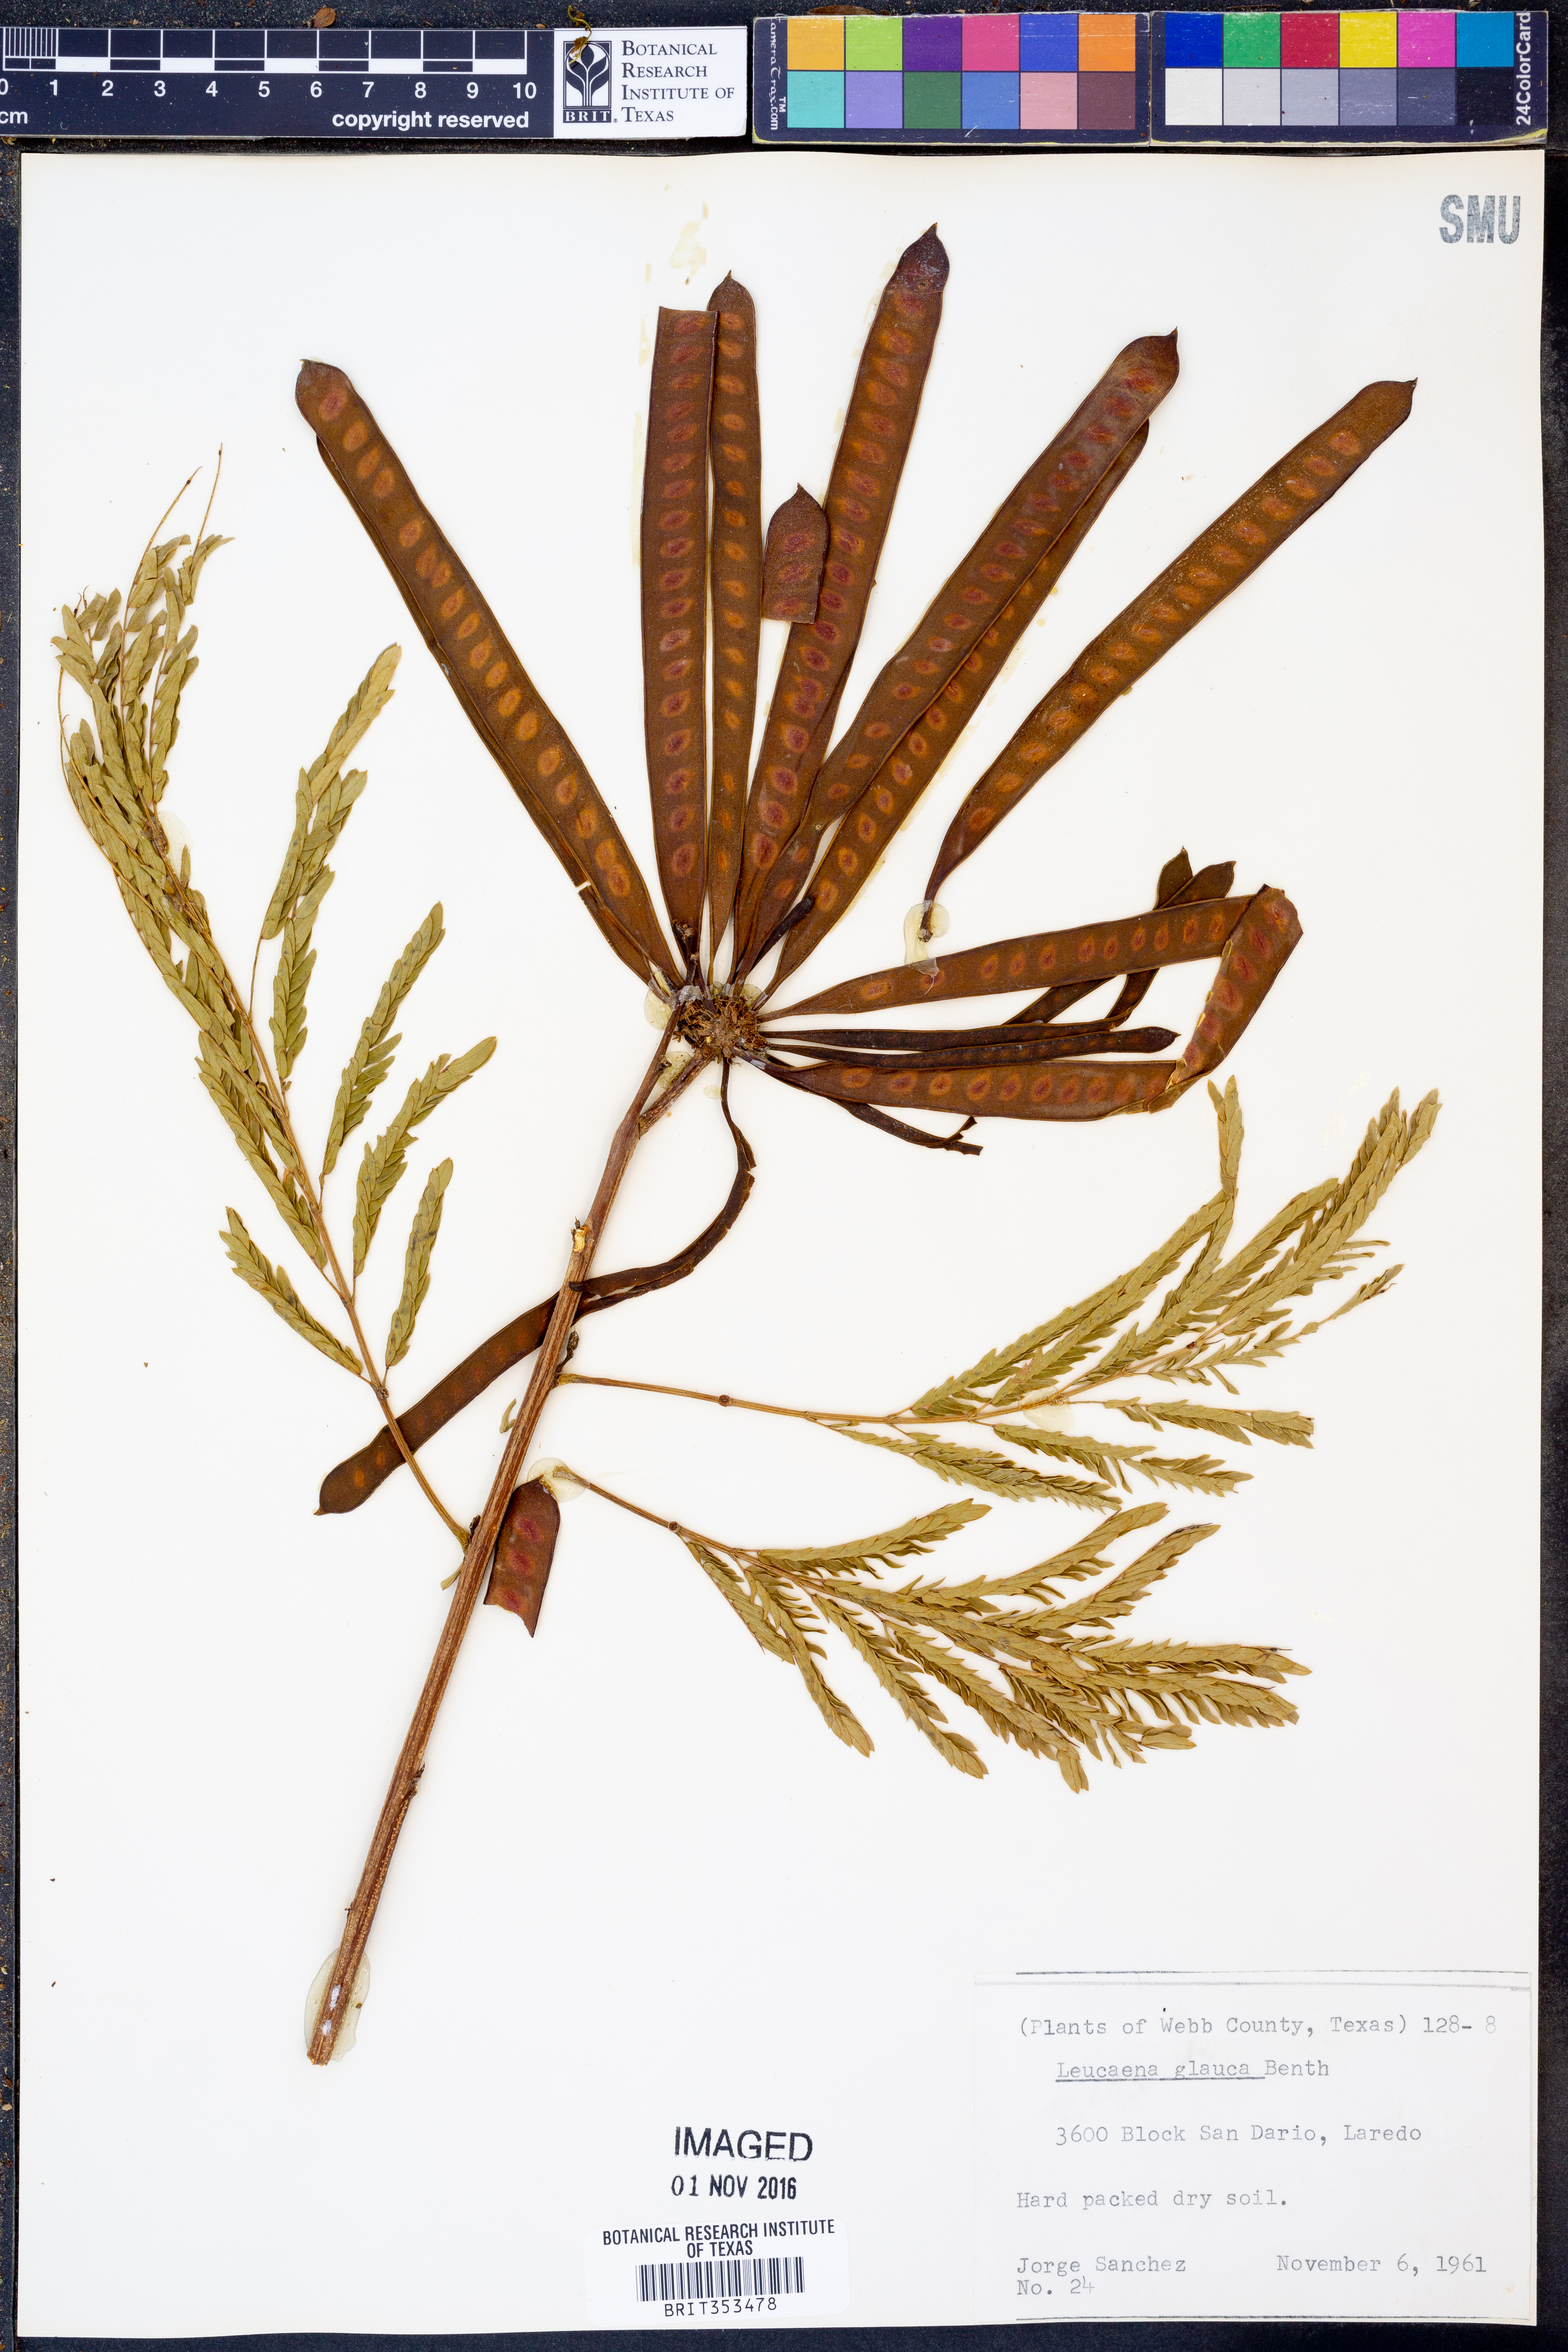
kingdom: Plantae
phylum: Tracheophyta
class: Magnoliopsida
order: Fabales
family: Fabaceae
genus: Acaciella
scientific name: Acaciella glauca
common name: Redwood
